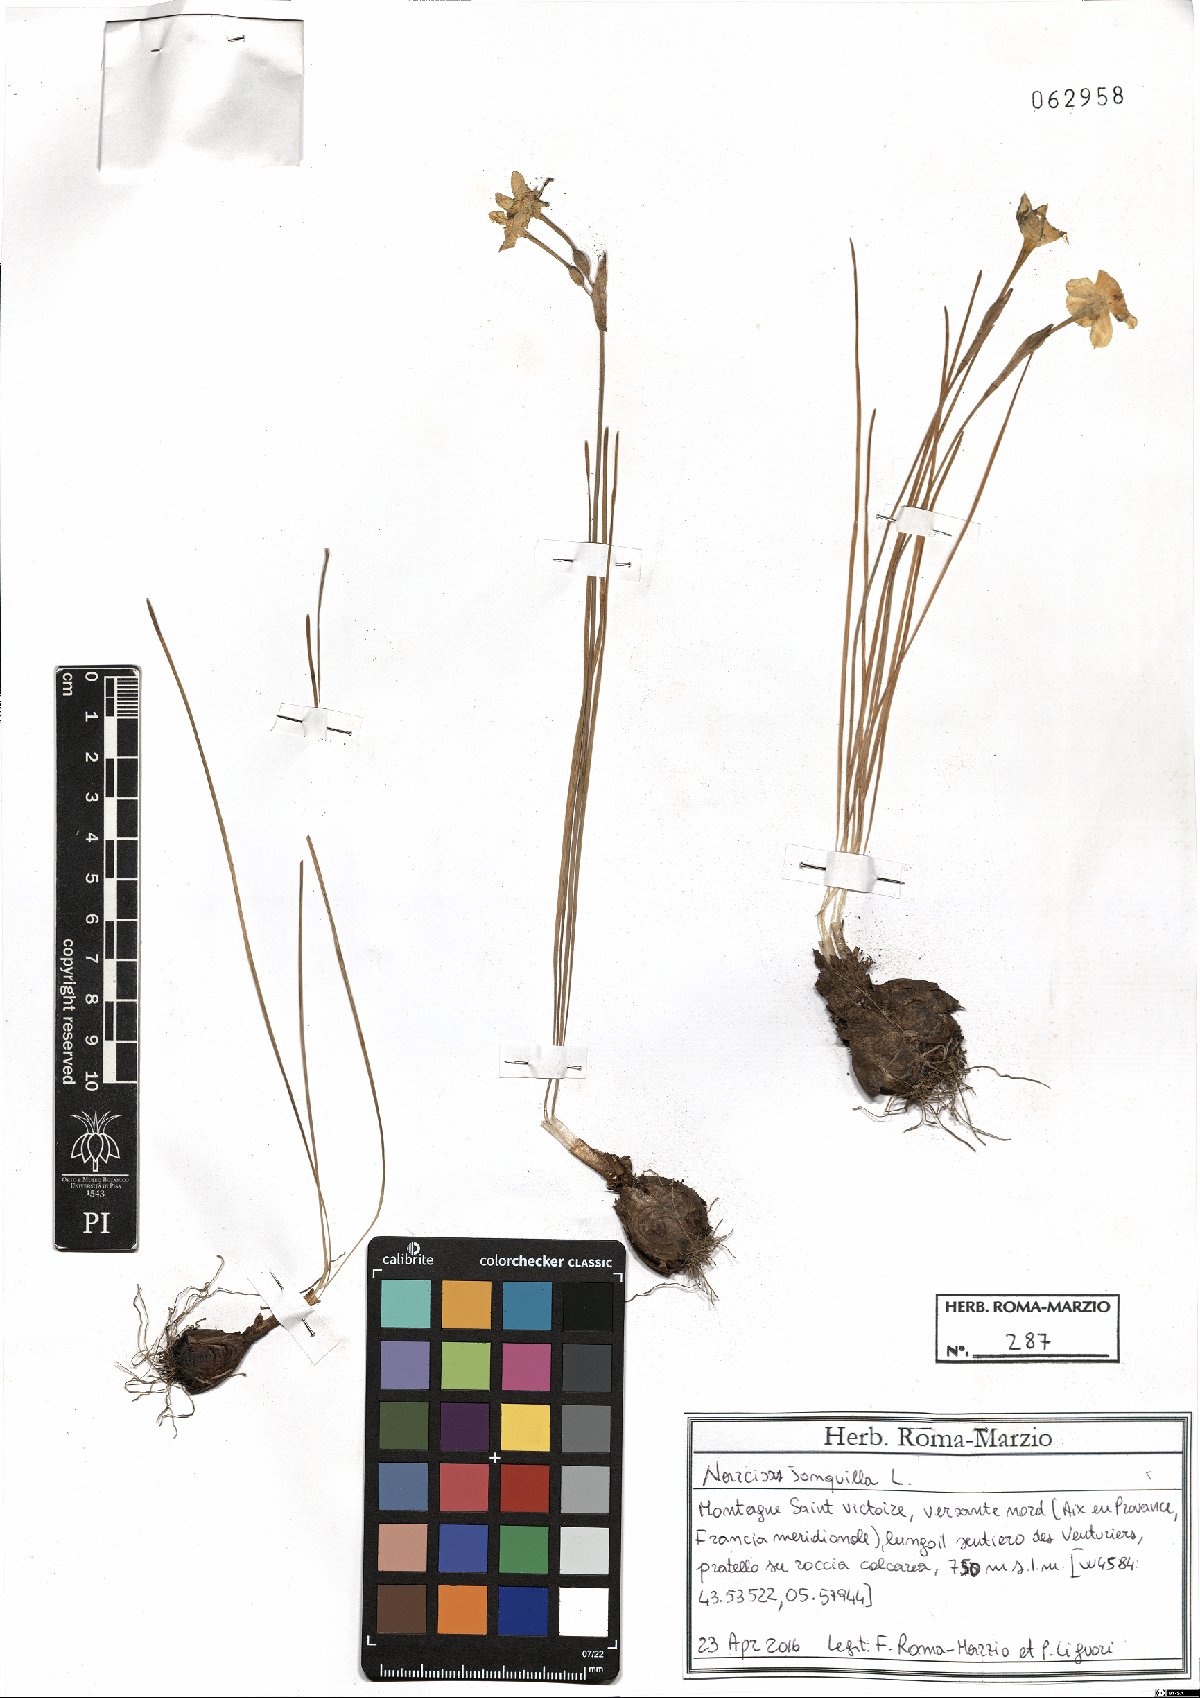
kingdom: Plantae
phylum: Tracheophyta
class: Liliopsida
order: Asparagales
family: Amaryllidaceae
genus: Narcissus
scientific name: Narcissus jonquilla
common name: Jonquil
